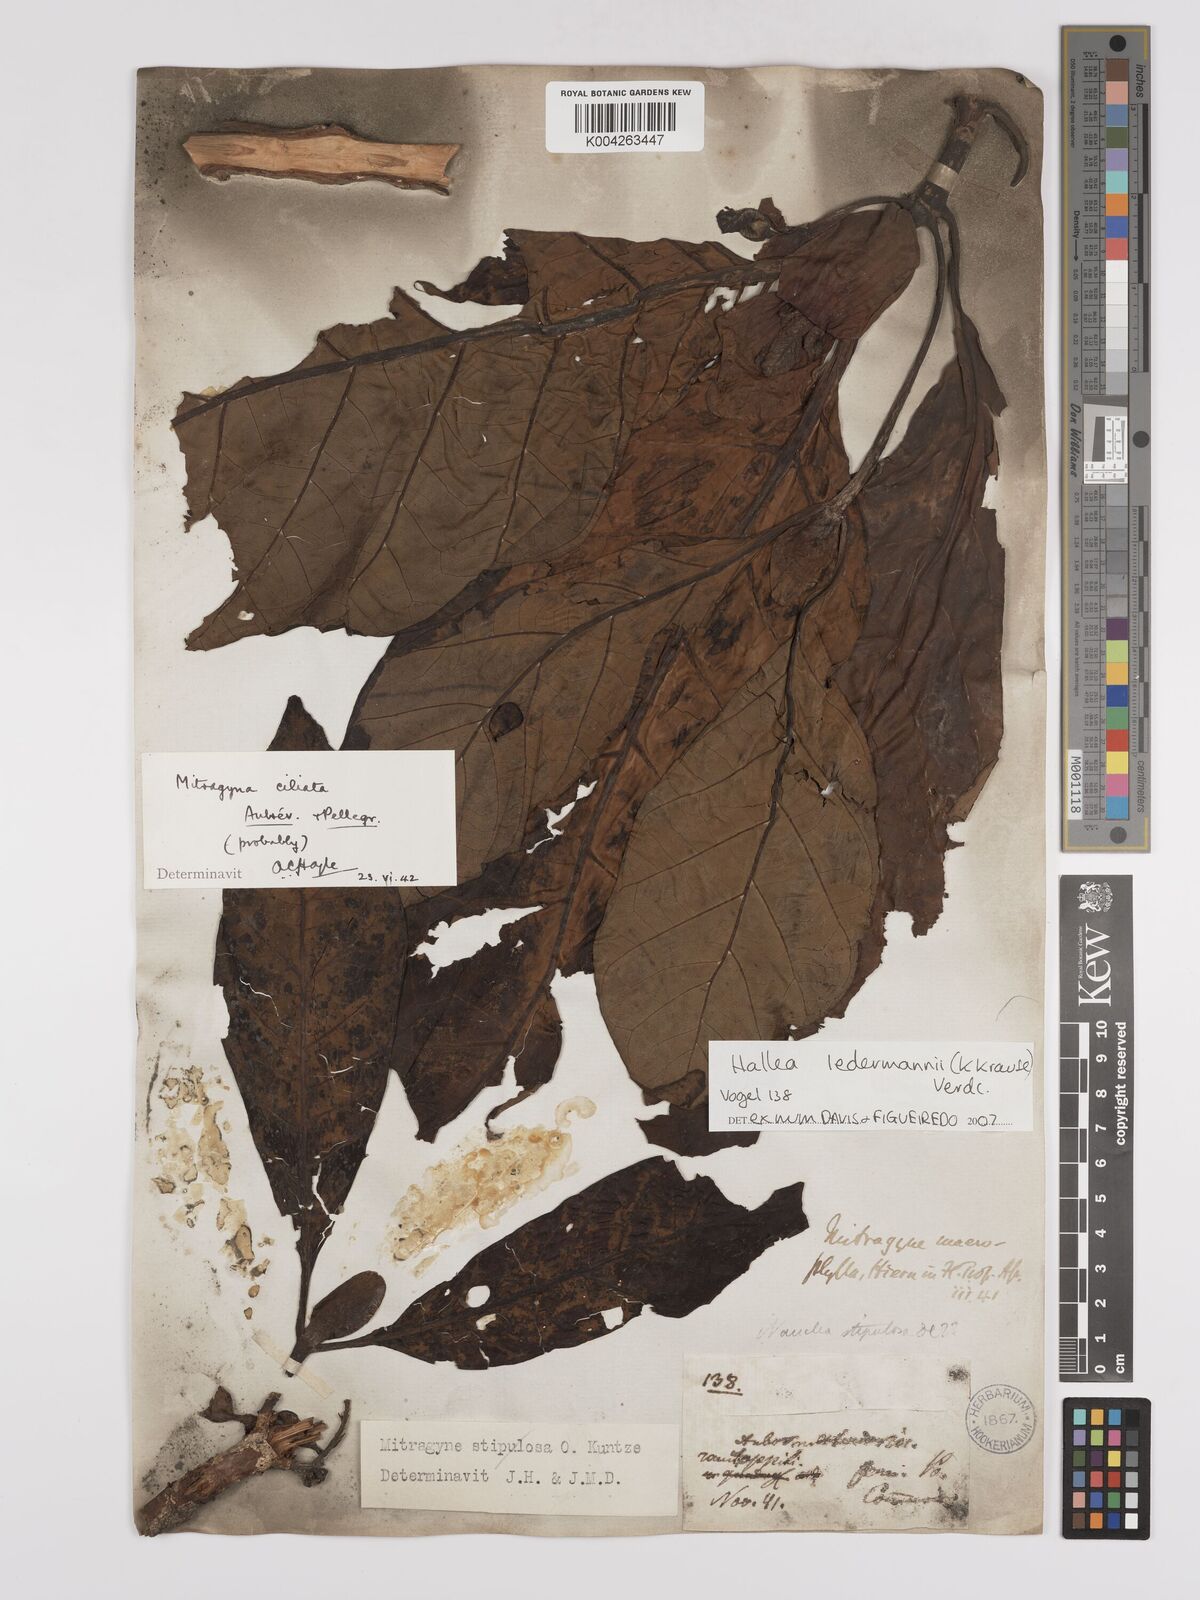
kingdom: Plantae
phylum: Tracheophyta
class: Magnoliopsida
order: Gentianales
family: Rubiaceae
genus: Mitragyna
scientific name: Mitragyna stipulosa
